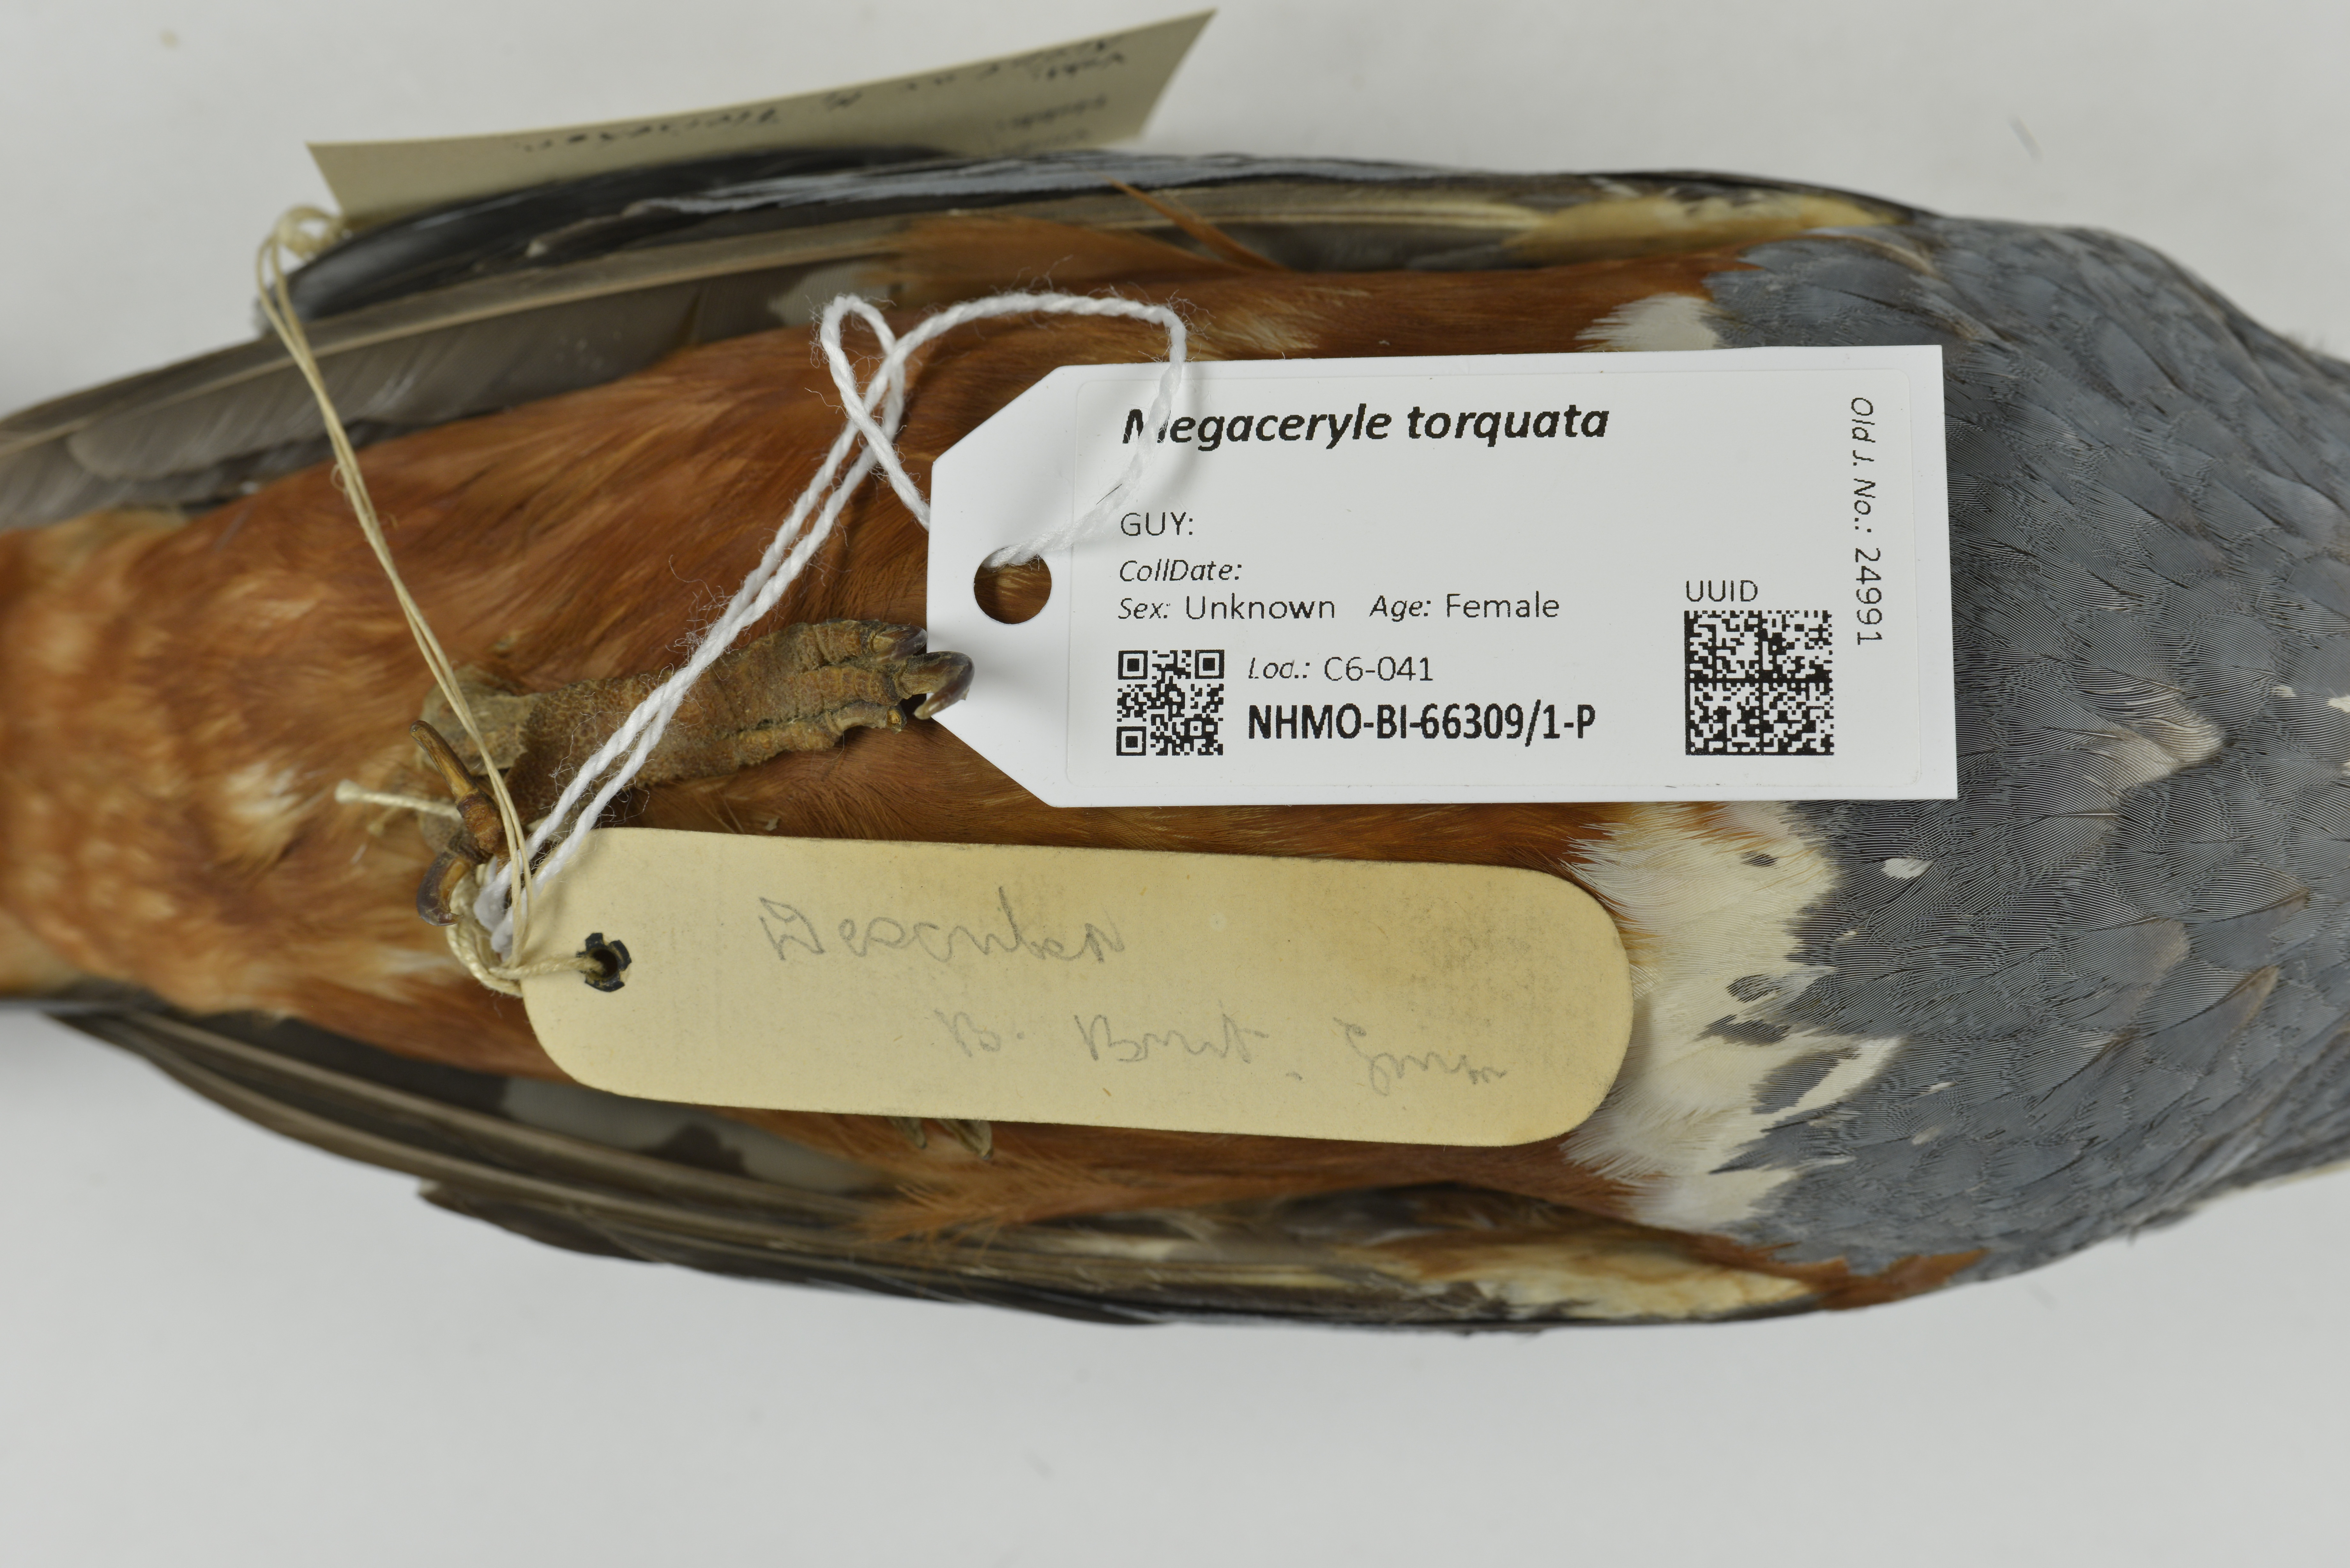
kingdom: Animalia
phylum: Chordata
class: Aves
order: Coraciiformes
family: Alcedinidae
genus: Megaceryle
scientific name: Megaceryle torquata
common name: Ringed kingfisher
